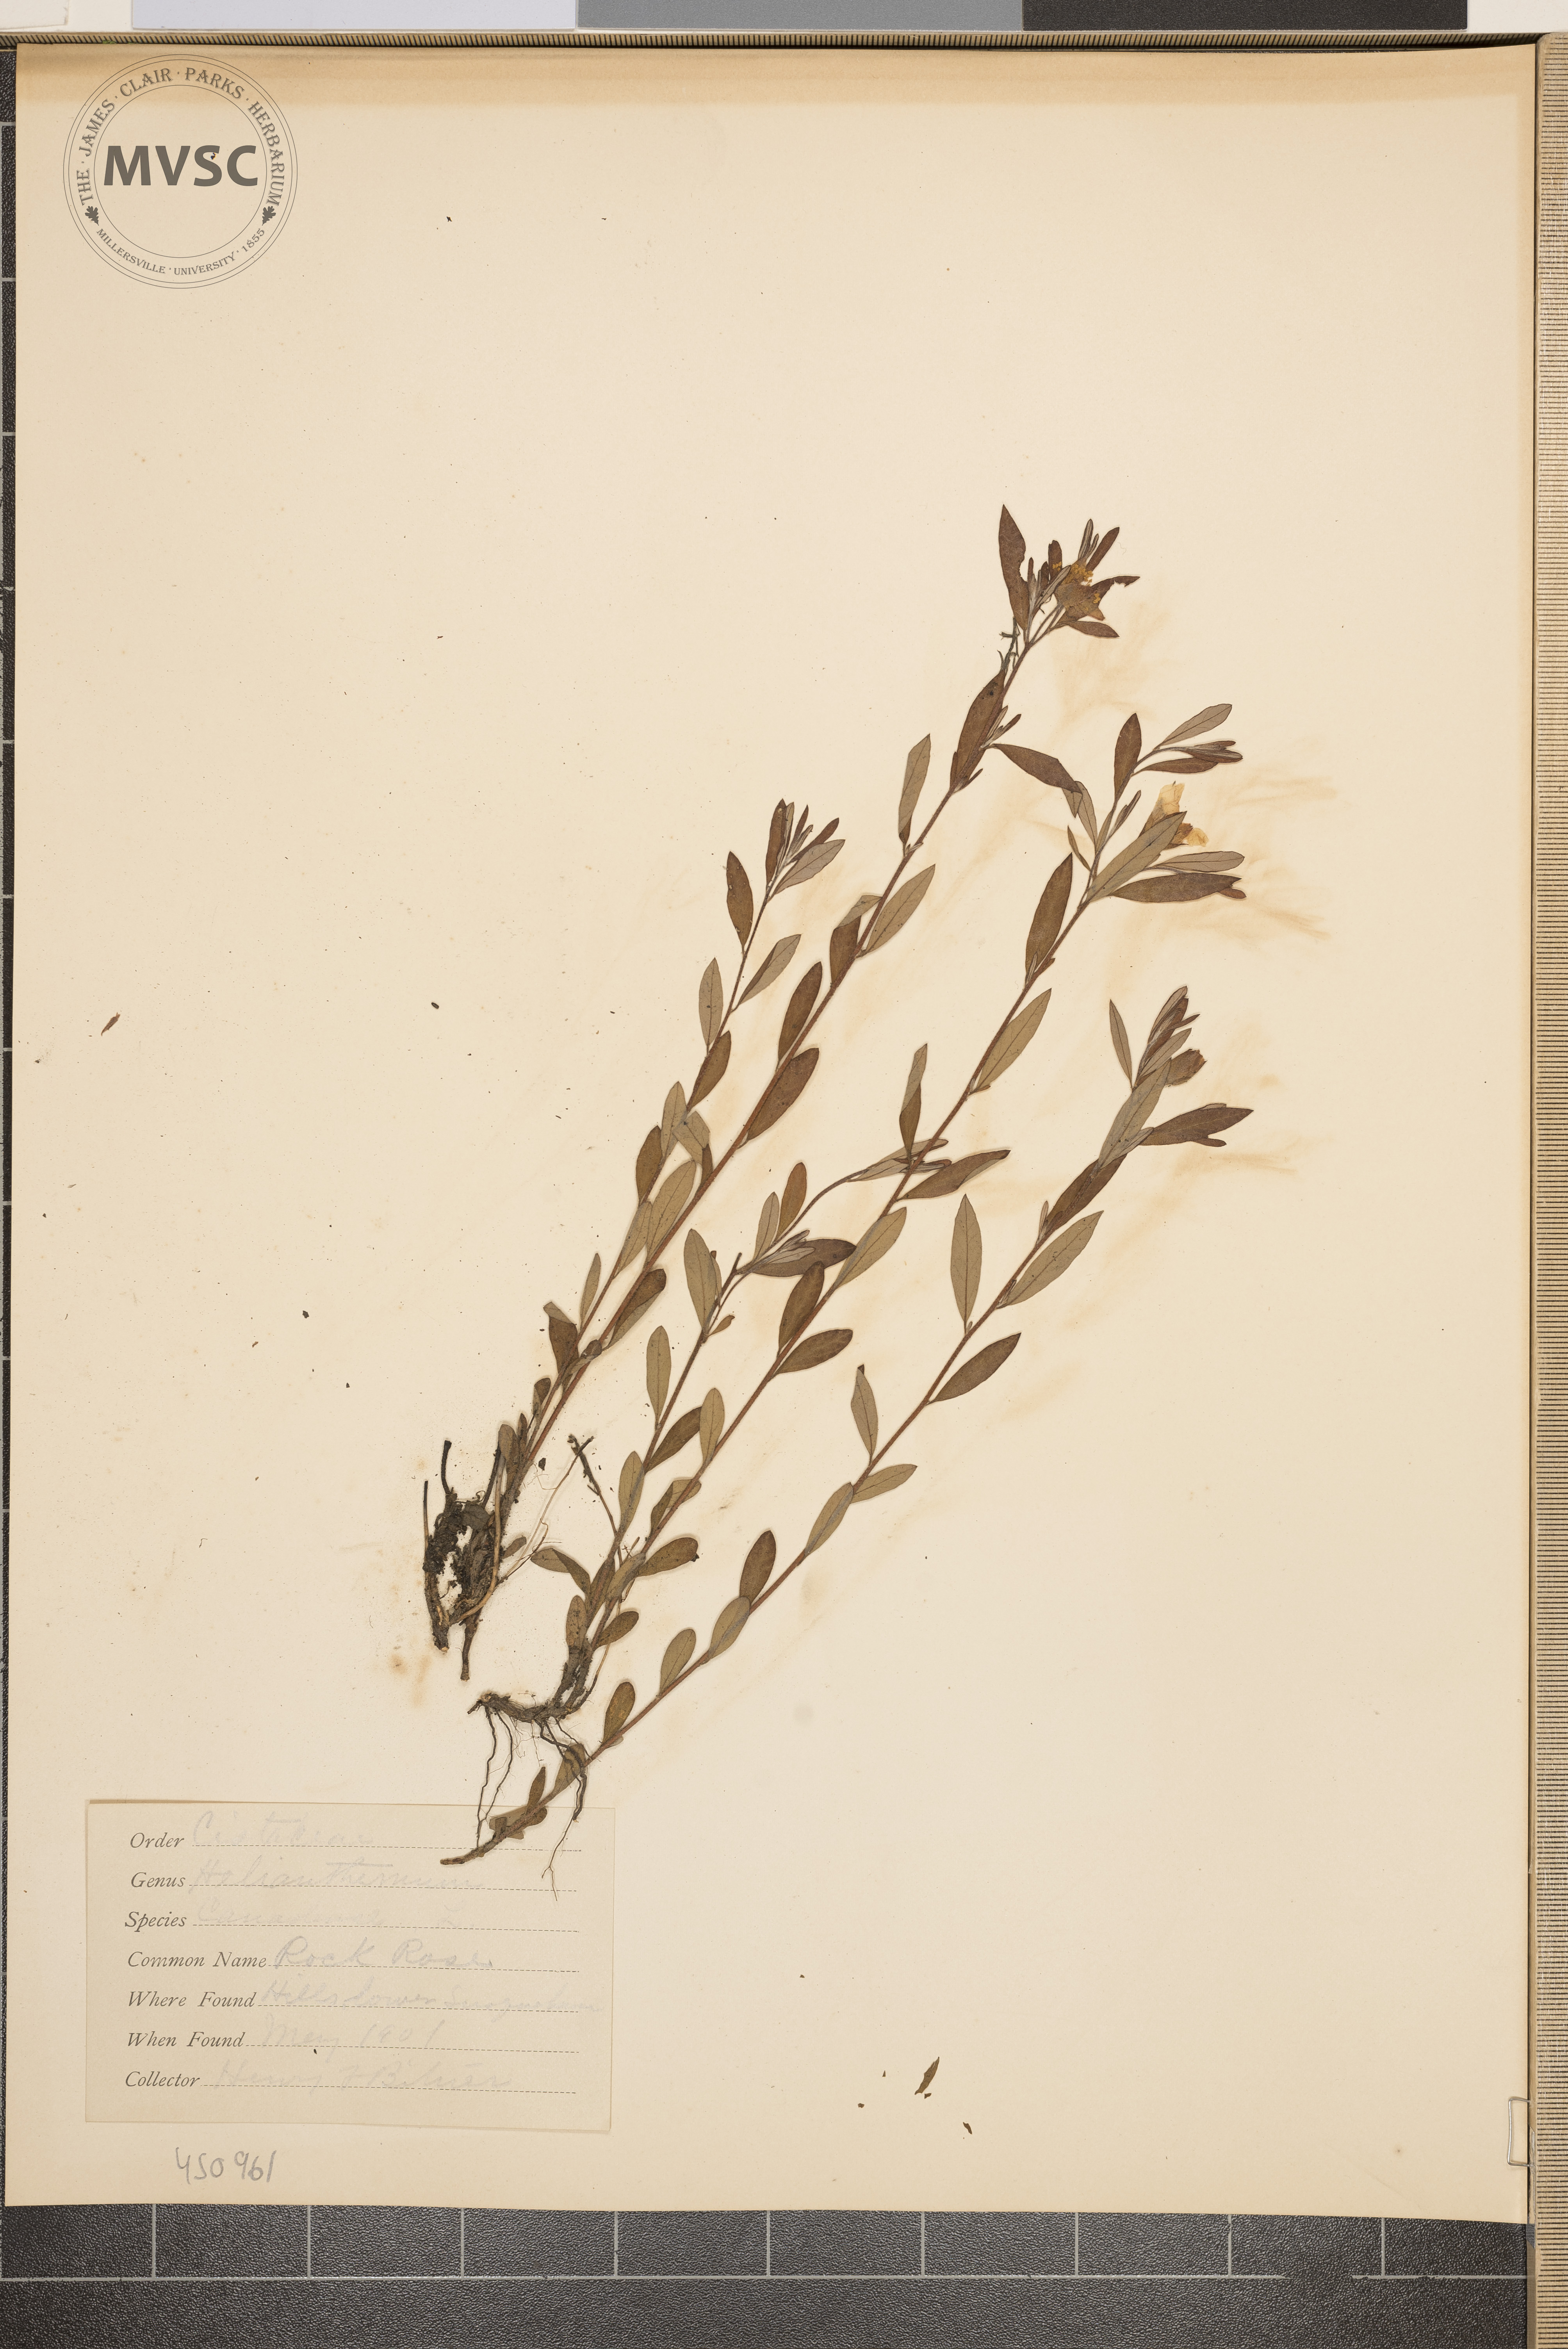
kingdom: Plantae
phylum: Tracheophyta
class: Magnoliopsida
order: Malvales
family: Cistaceae
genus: Crocanthemum
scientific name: Crocanthemum canadense
